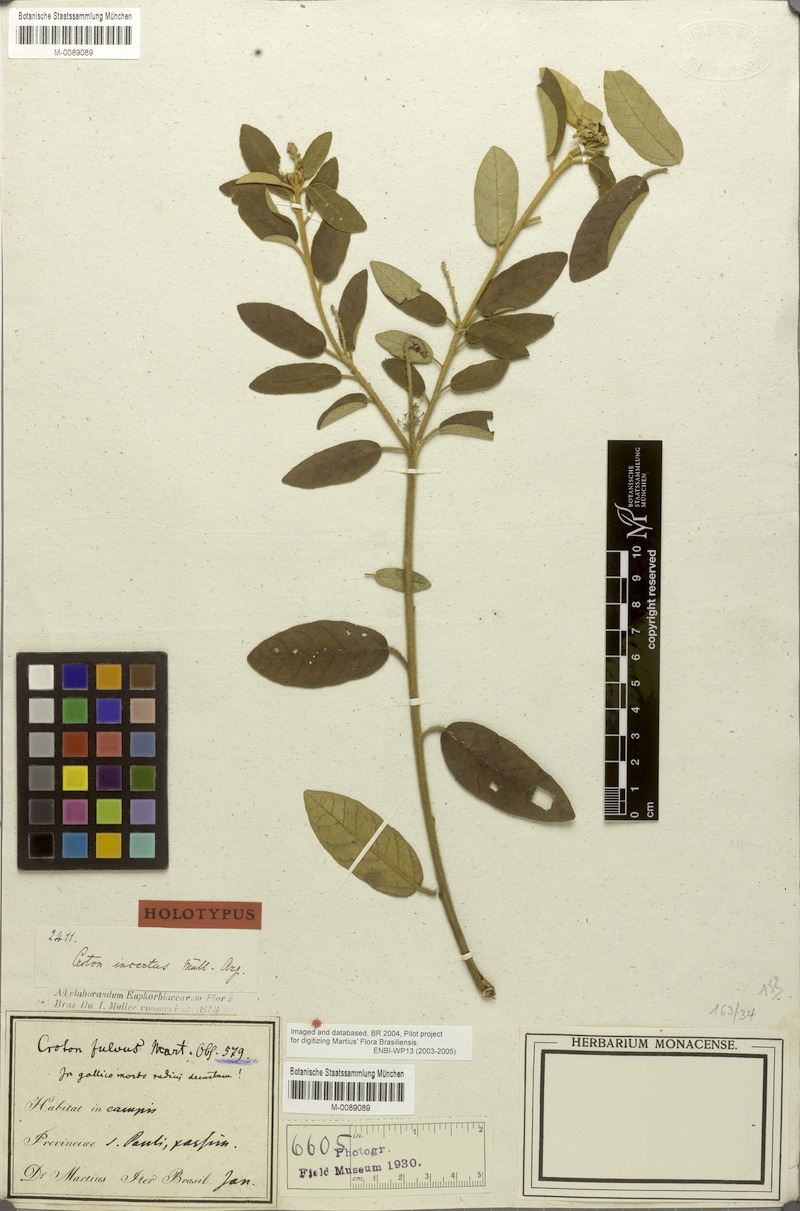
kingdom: Plantae
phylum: Tracheophyta
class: Magnoliopsida
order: Malpighiales
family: Euphorbiaceae
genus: Croton
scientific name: Croton incertus
